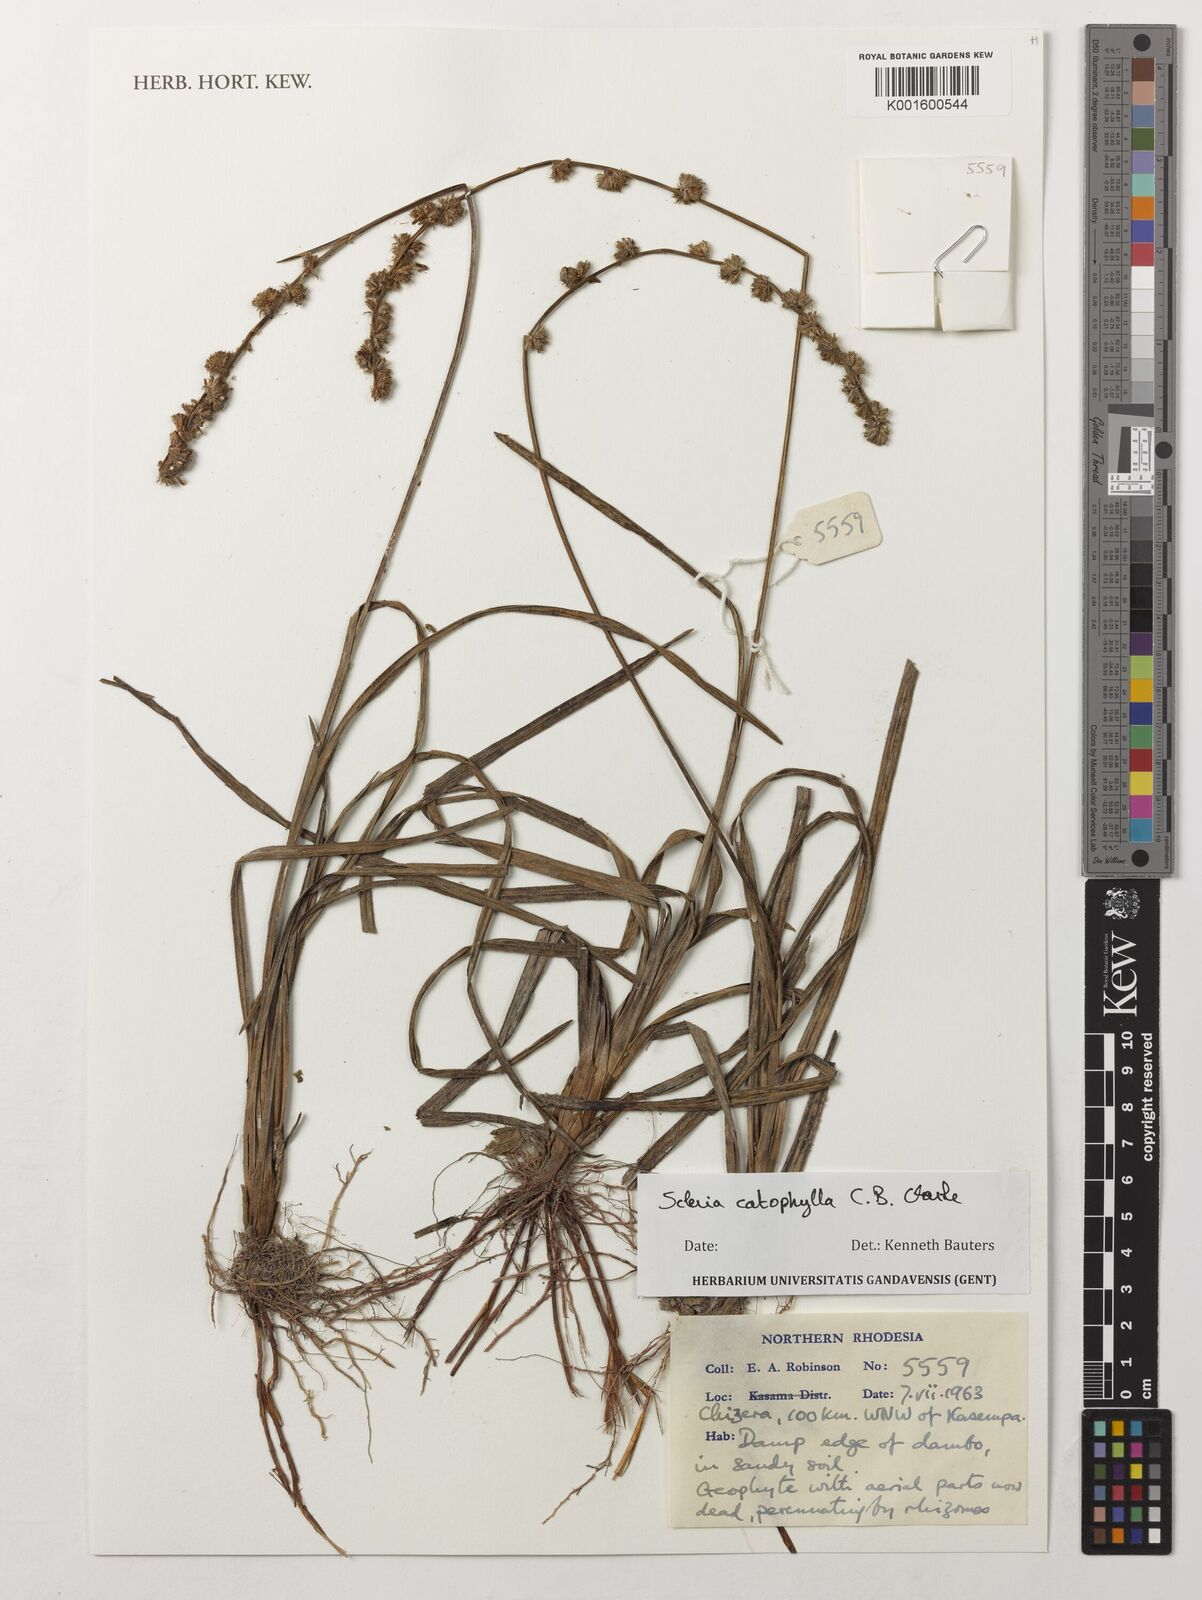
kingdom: Plantae
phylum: Tracheophyta
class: Liliopsida
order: Poales
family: Cyperaceae
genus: Scleria
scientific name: Scleria catophylla
